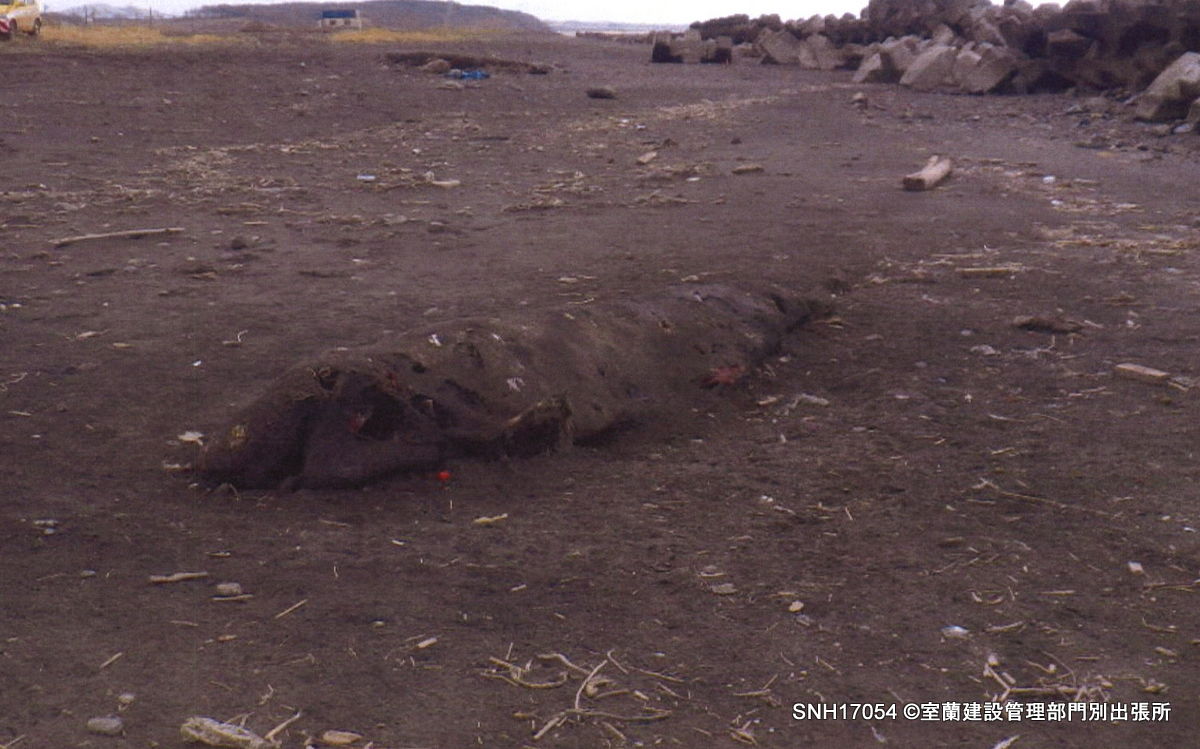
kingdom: Animalia
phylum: Chordata
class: Mammalia
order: Cetacea
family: Delphinidae
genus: Globicephala
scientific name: Globicephala macrorhynchus
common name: Short-finned pilot whale
